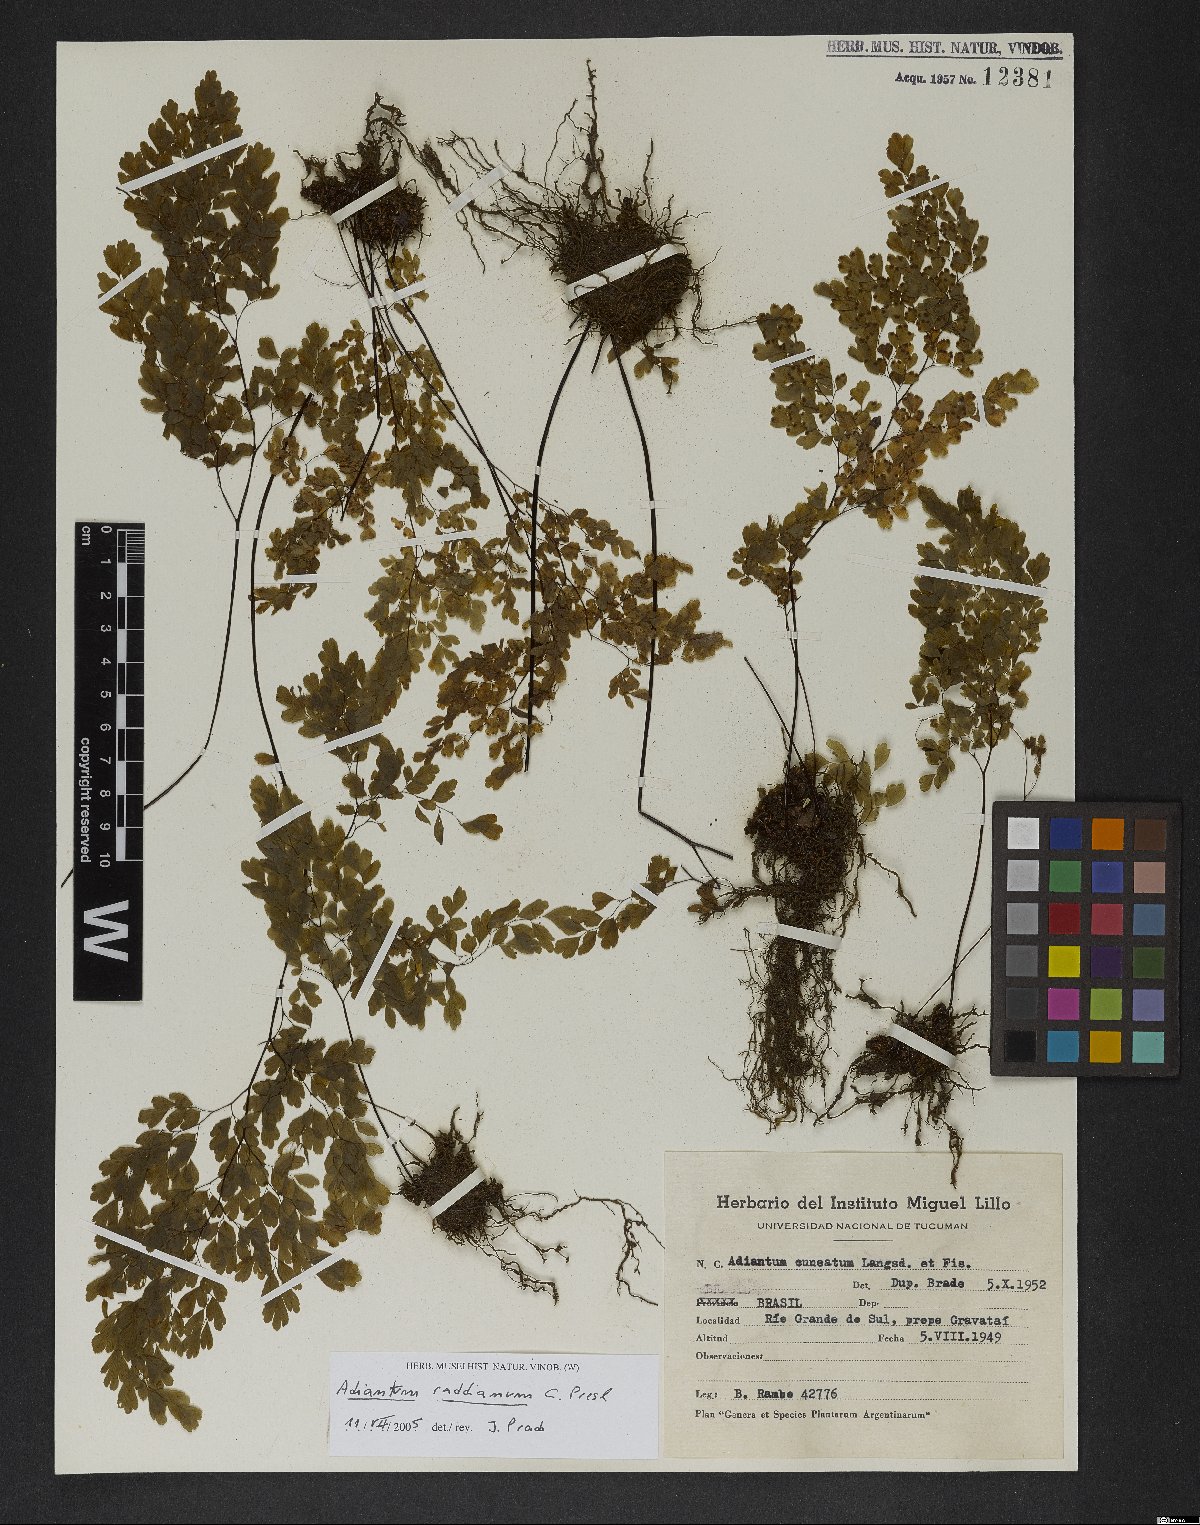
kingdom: Plantae
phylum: Tracheophyta
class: Polypodiopsida
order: Polypodiales
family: Pteridaceae
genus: Adiantum
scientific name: Adiantum raddianum
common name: Delta maidenhair fern
